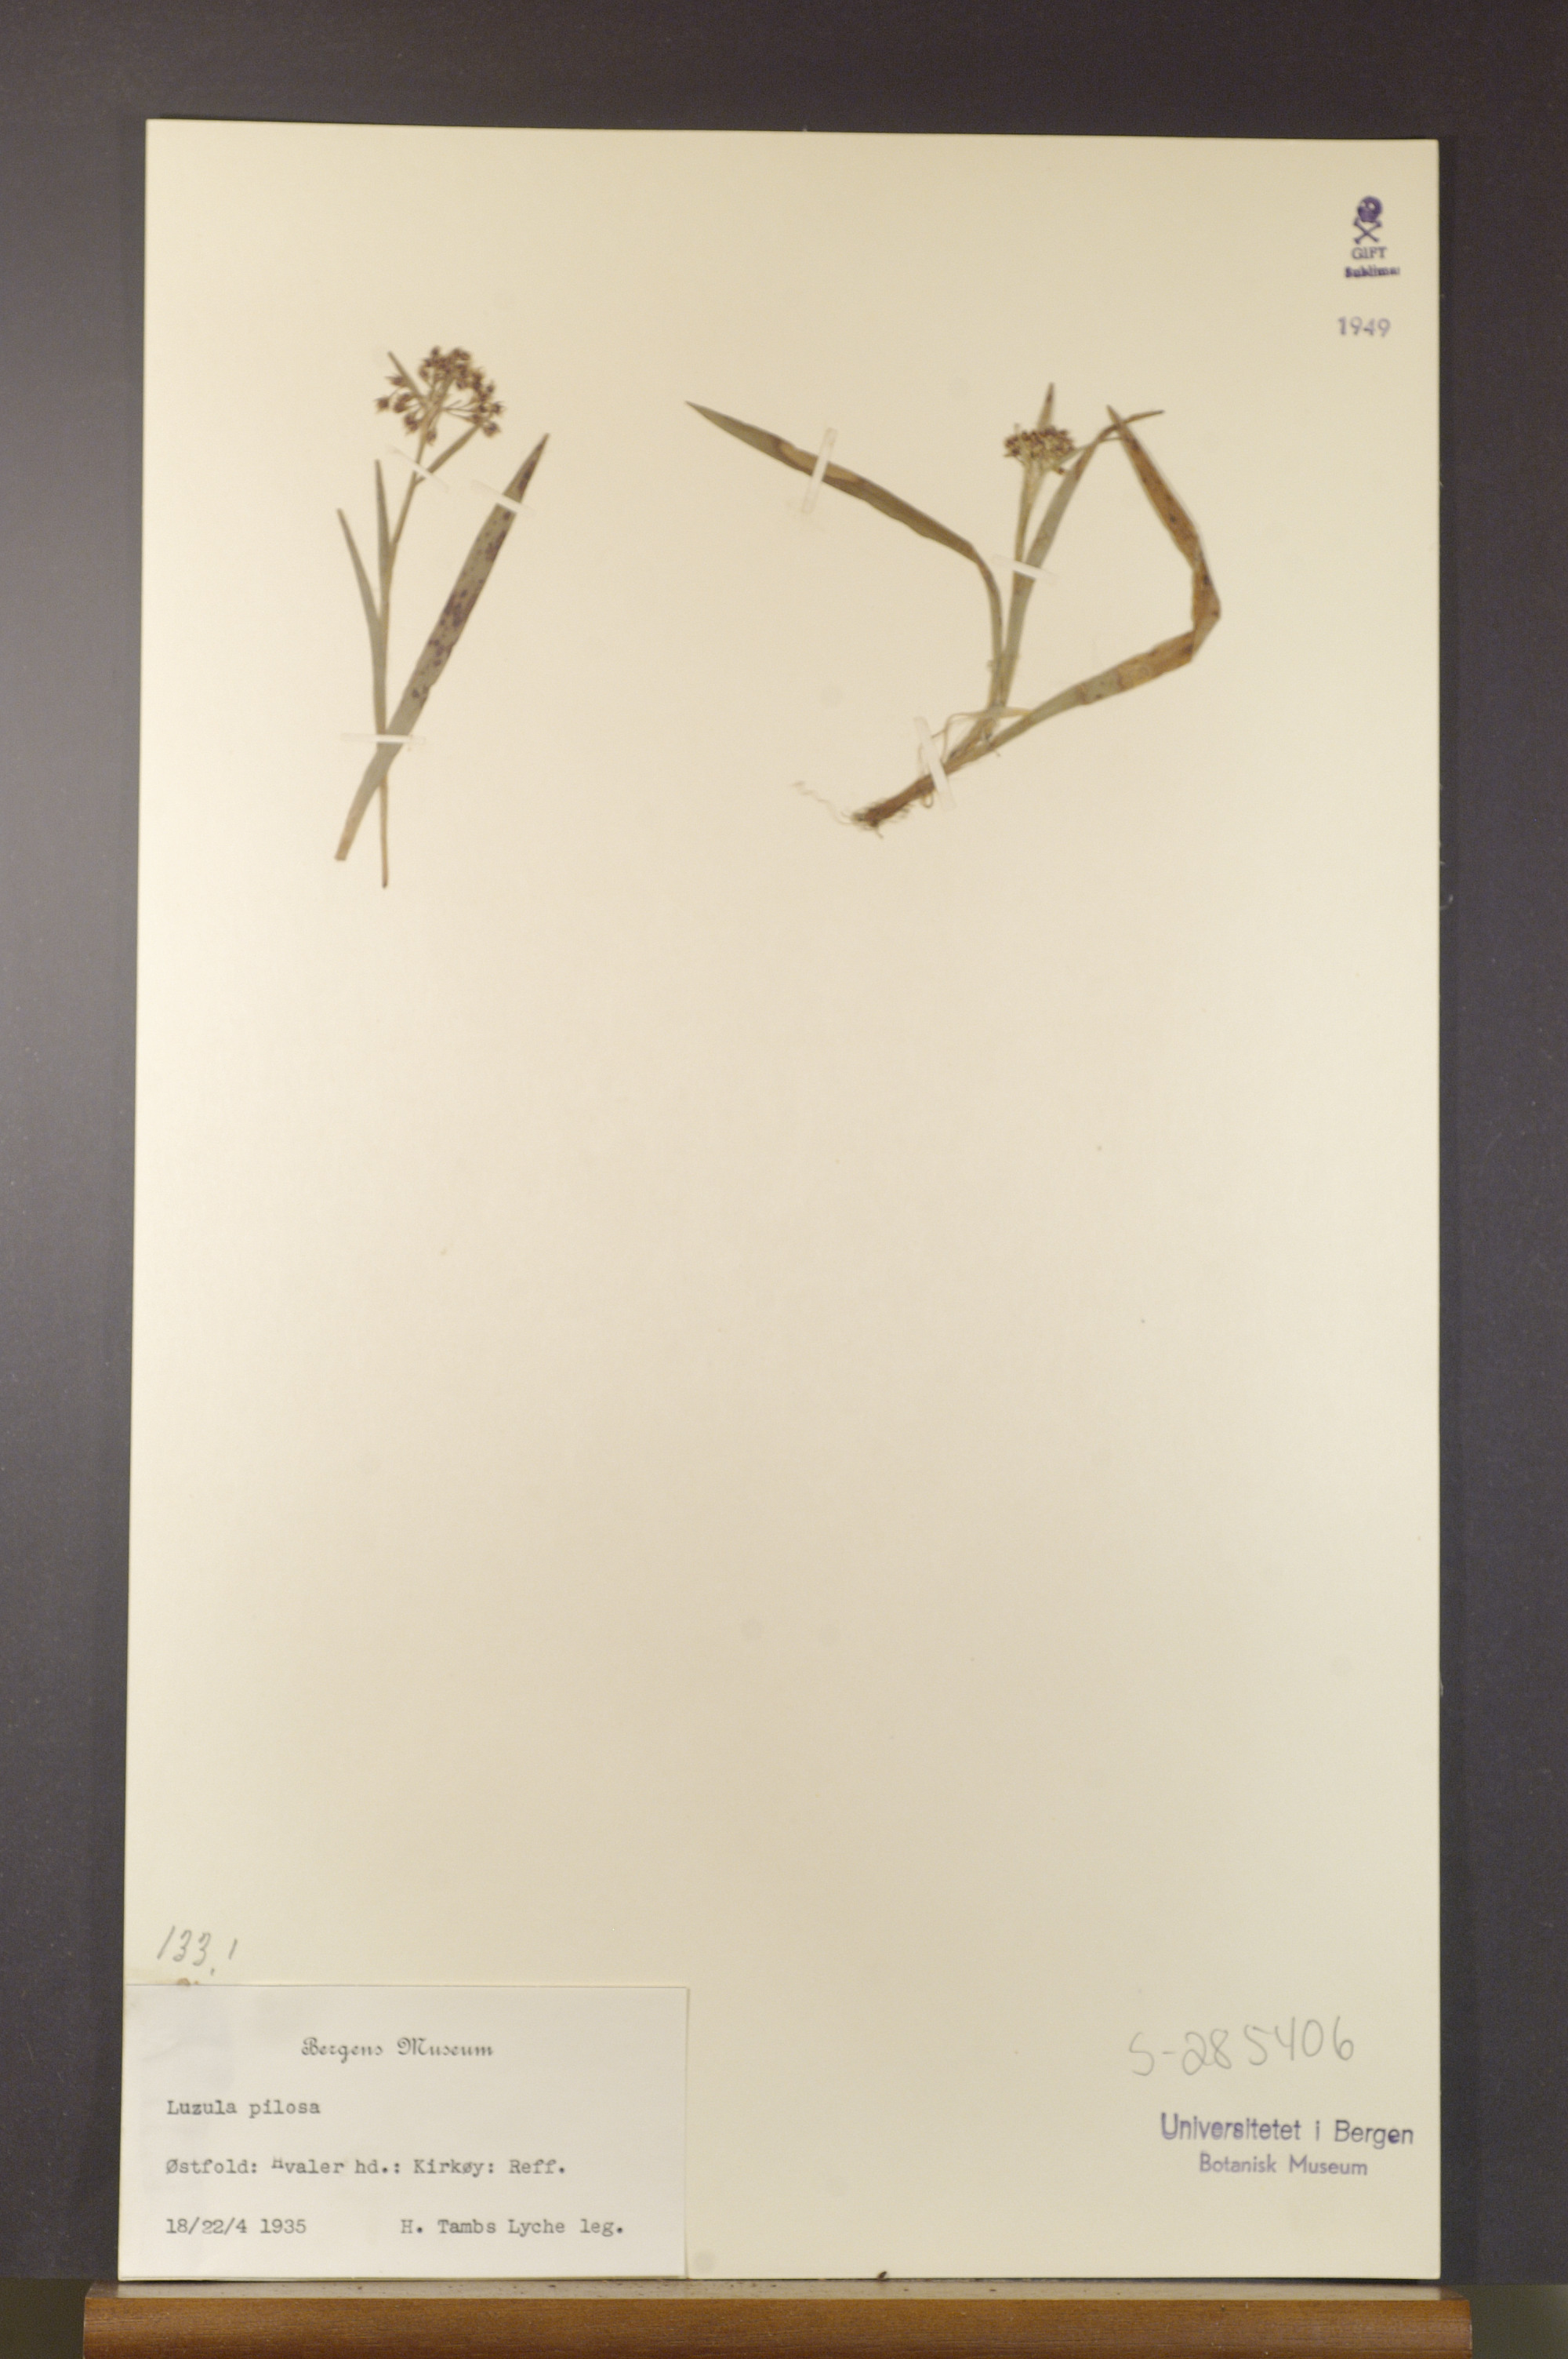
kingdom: Plantae
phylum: Tracheophyta
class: Liliopsida
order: Poales
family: Juncaceae
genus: Luzula
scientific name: Luzula pilosa
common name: Hairy wood-rush
